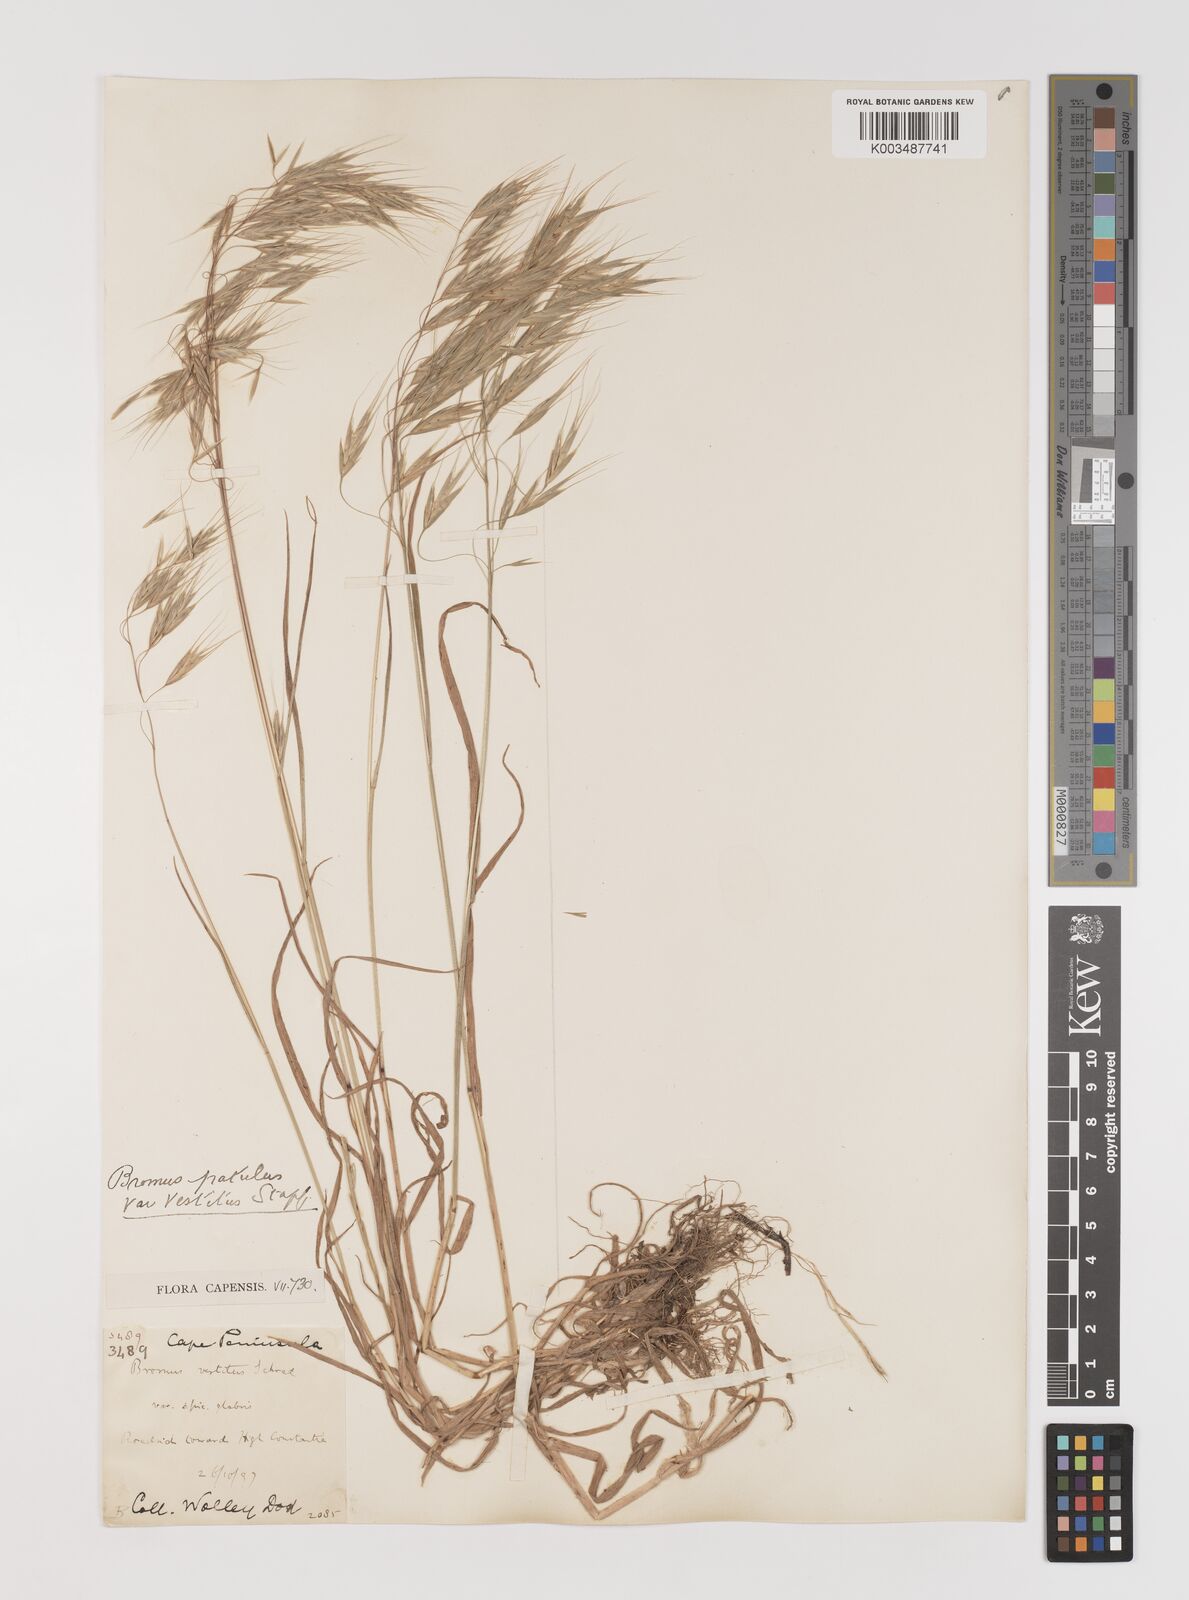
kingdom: Plantae
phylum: Tracheophyta
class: Liliopsida
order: Poales
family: Poaceae
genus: Bromus
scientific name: Bromus pectinatus
